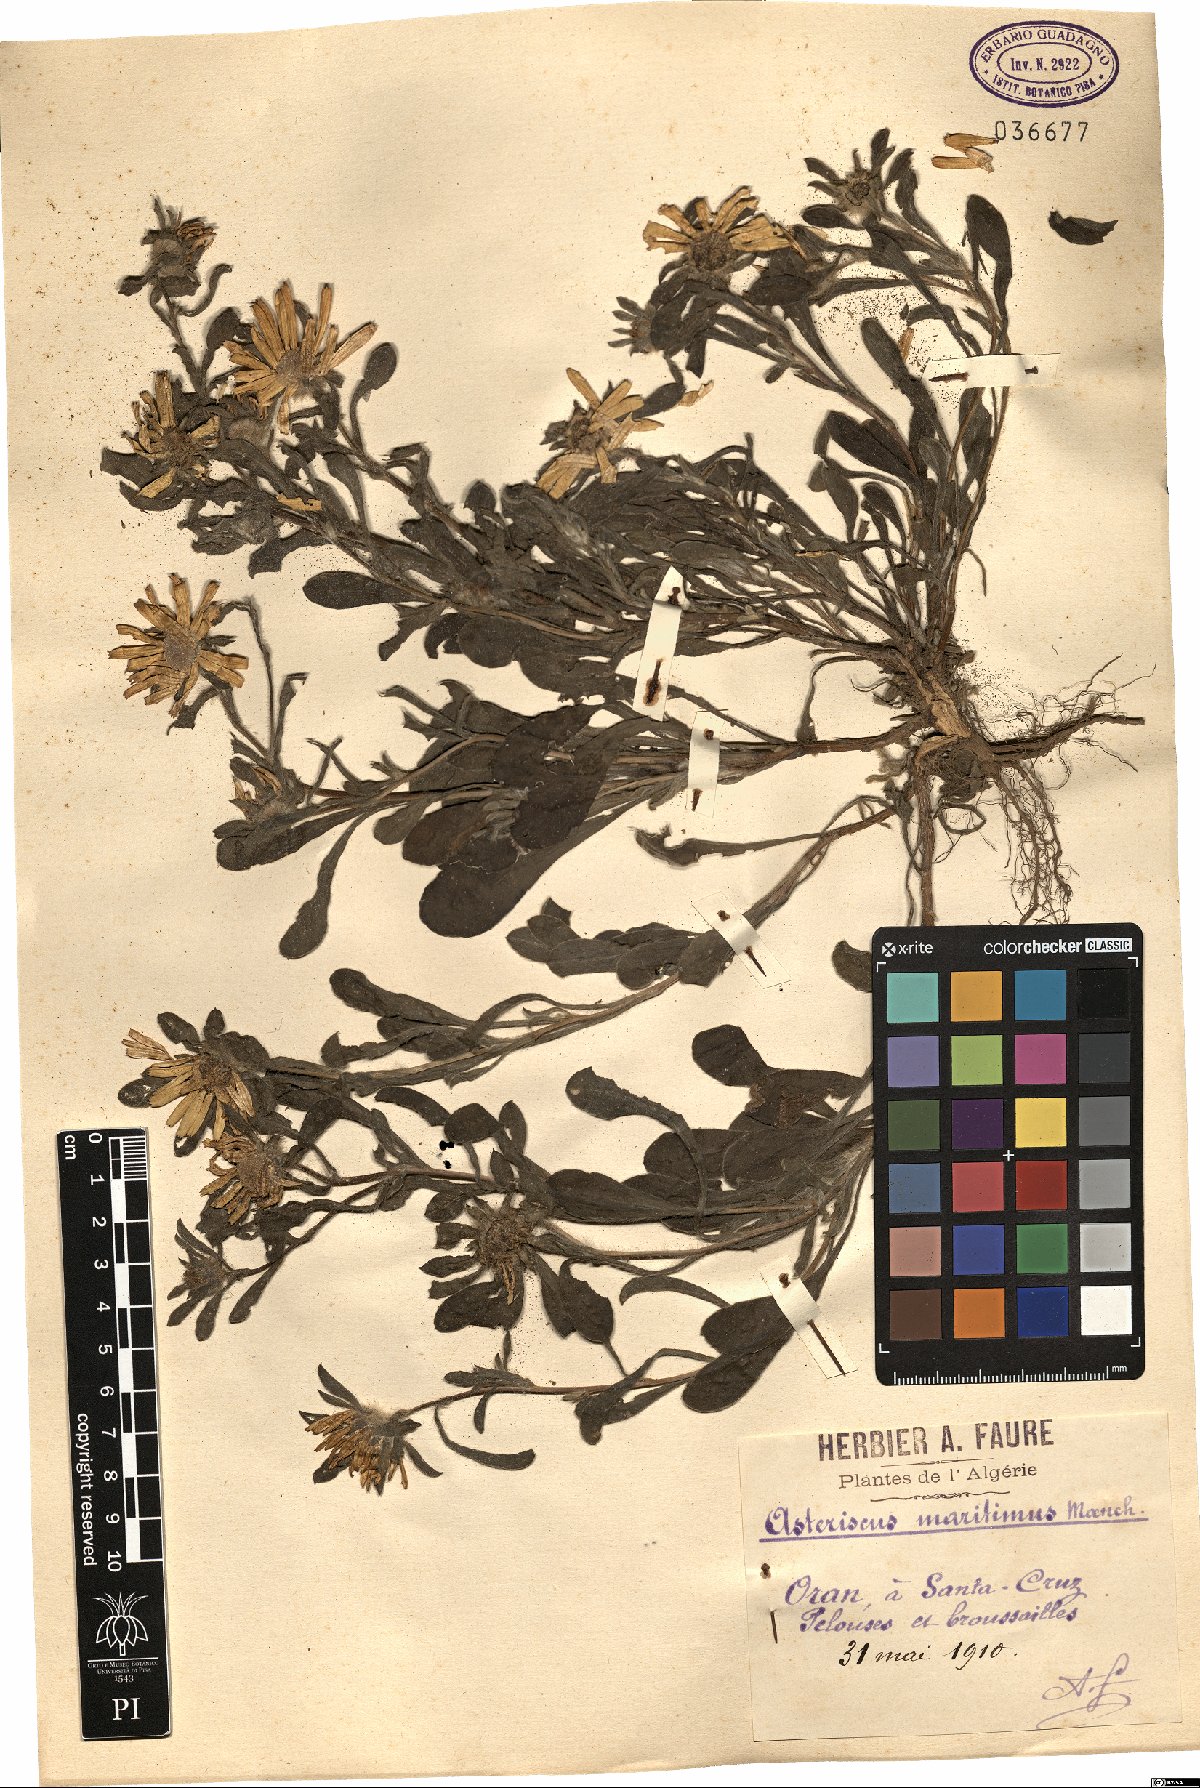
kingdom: Plantae
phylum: Tracheophyta
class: Magnoliopsida
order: Asterales
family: Asteraceae
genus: Pallenis
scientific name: Pallenis maritima
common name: Golden coin daisy
